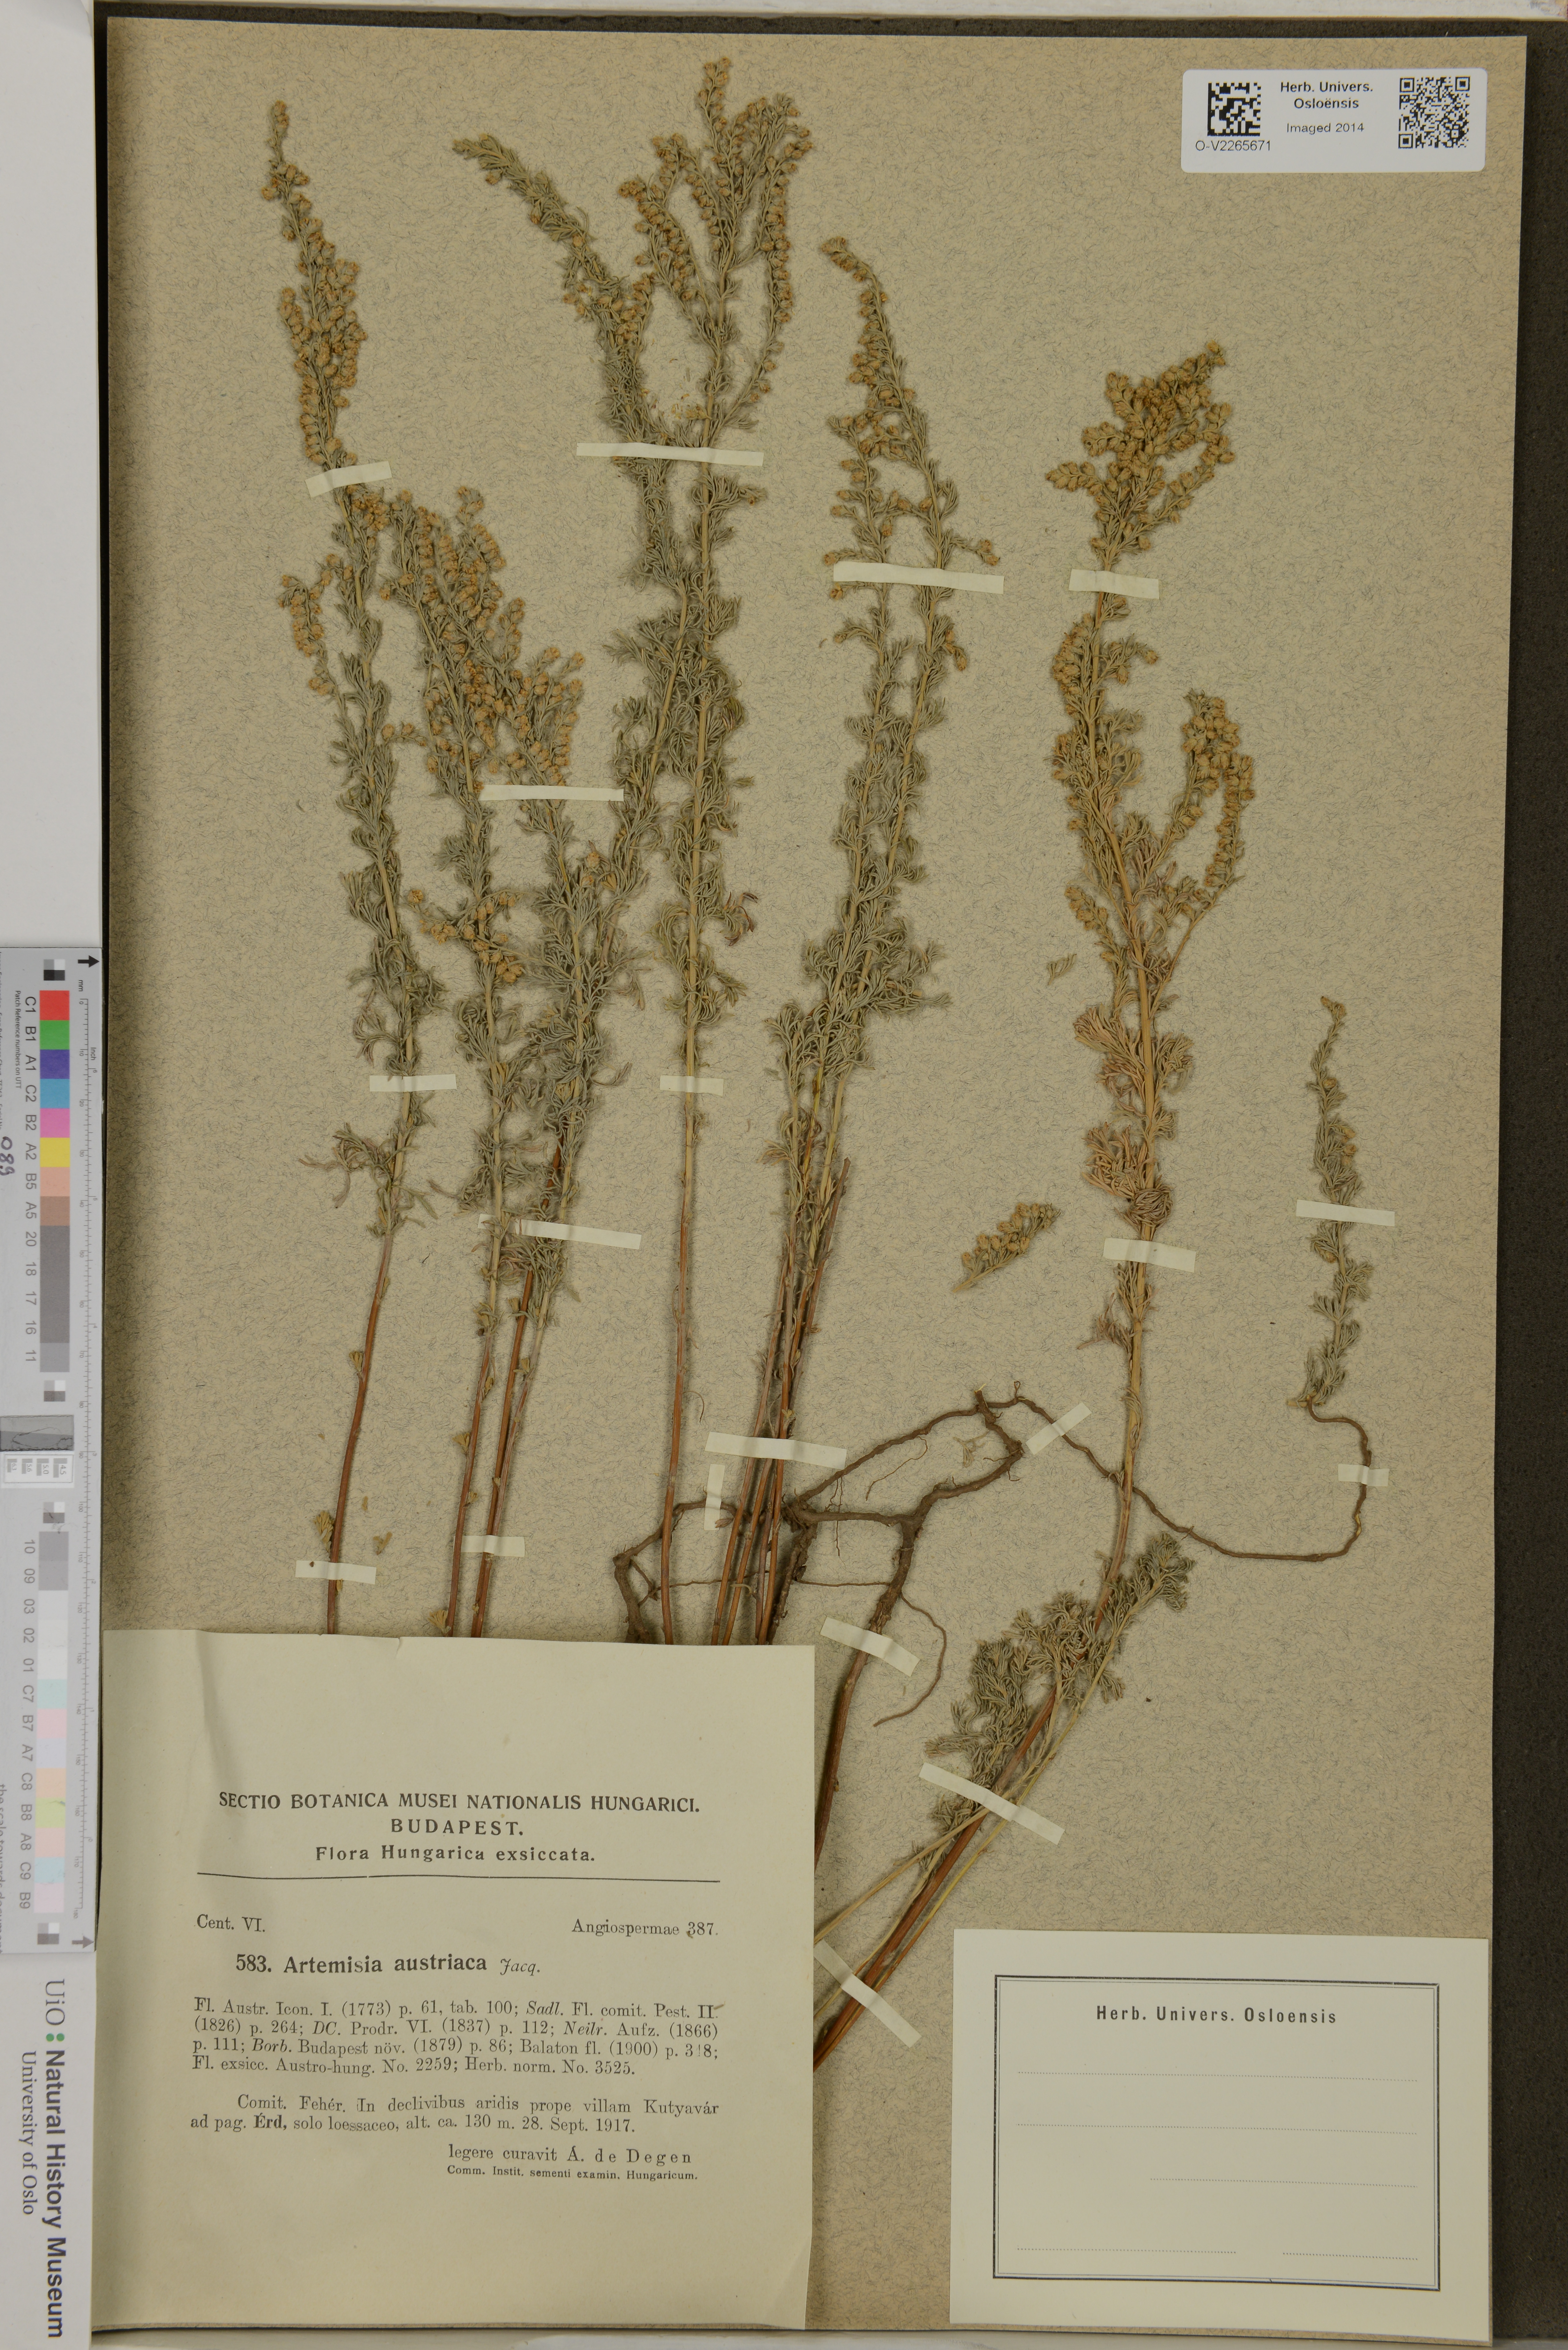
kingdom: Plantae
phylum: Tracheophyta
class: Magnoliopsida
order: Asterales
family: Asteraceae
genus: Artemisia
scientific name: Artemisia austriaca
